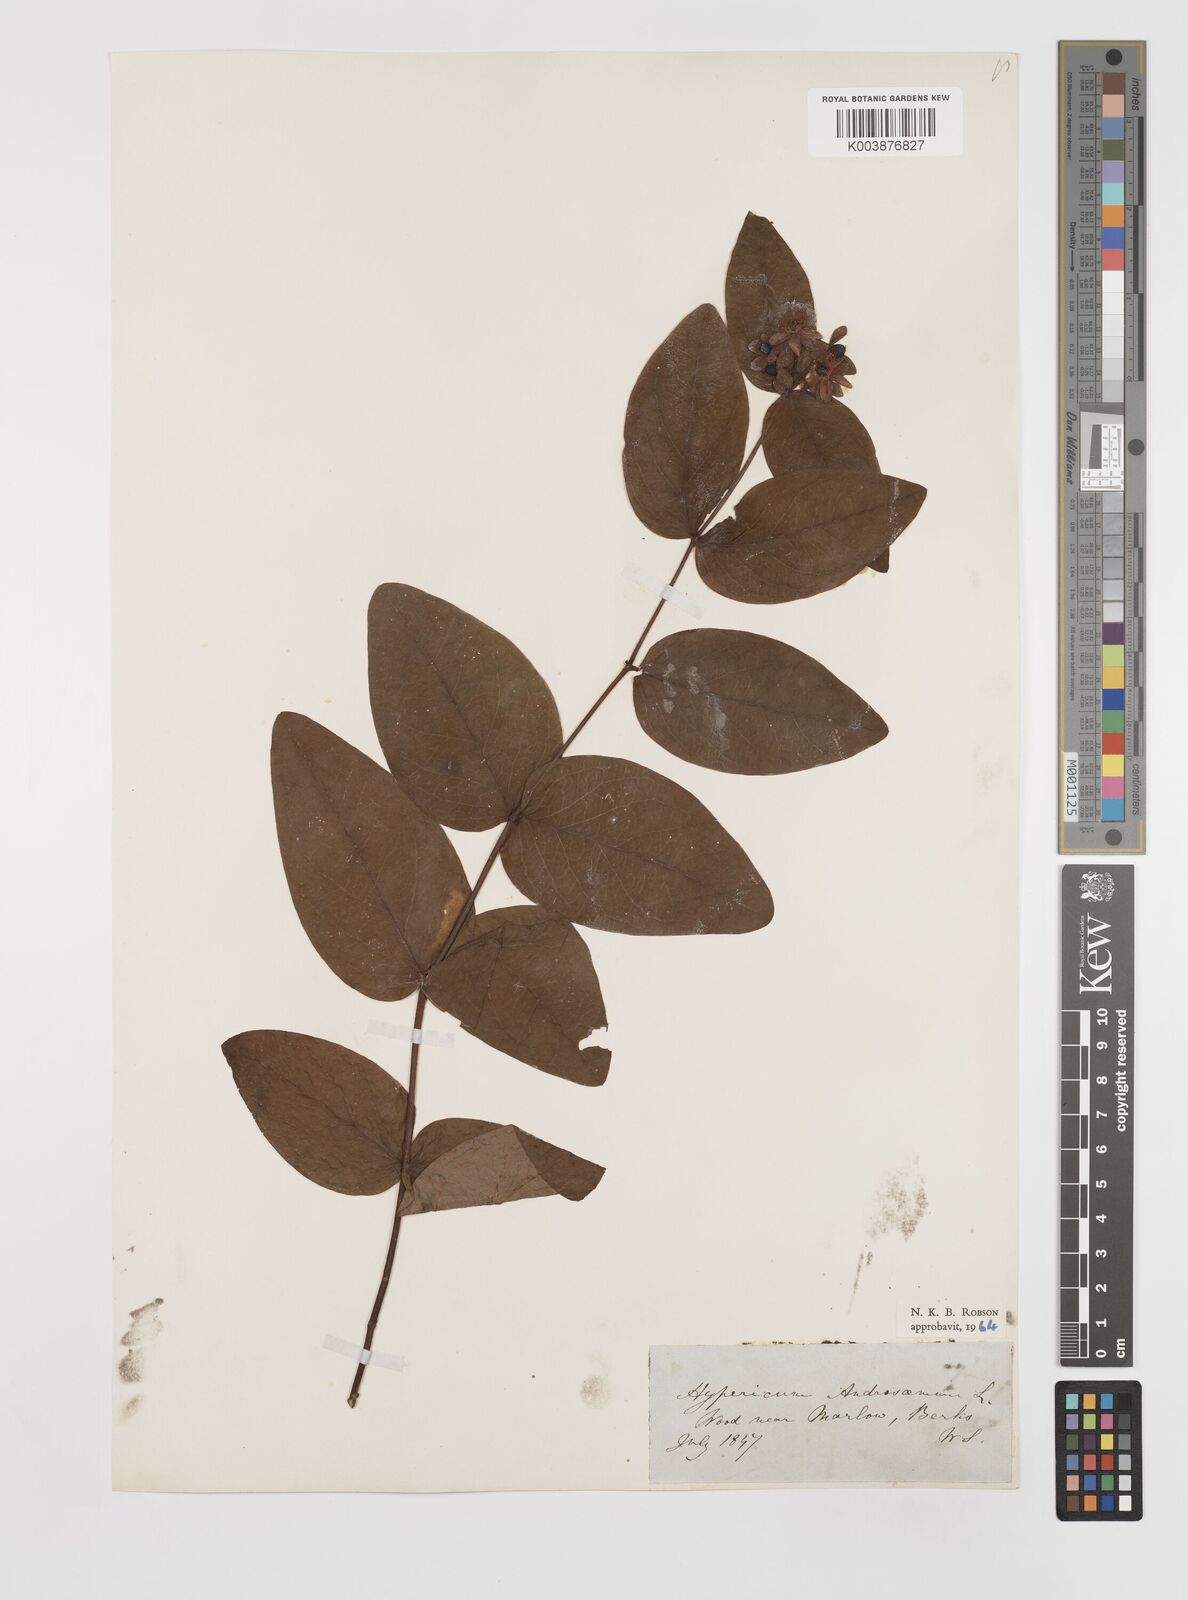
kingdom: Plantae
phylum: Tracheophyta
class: Magnoliopsida
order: Malpighiales
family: Hypericaceae
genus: Hypericum
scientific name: Hypericum androsaemum
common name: Sweet-amber
